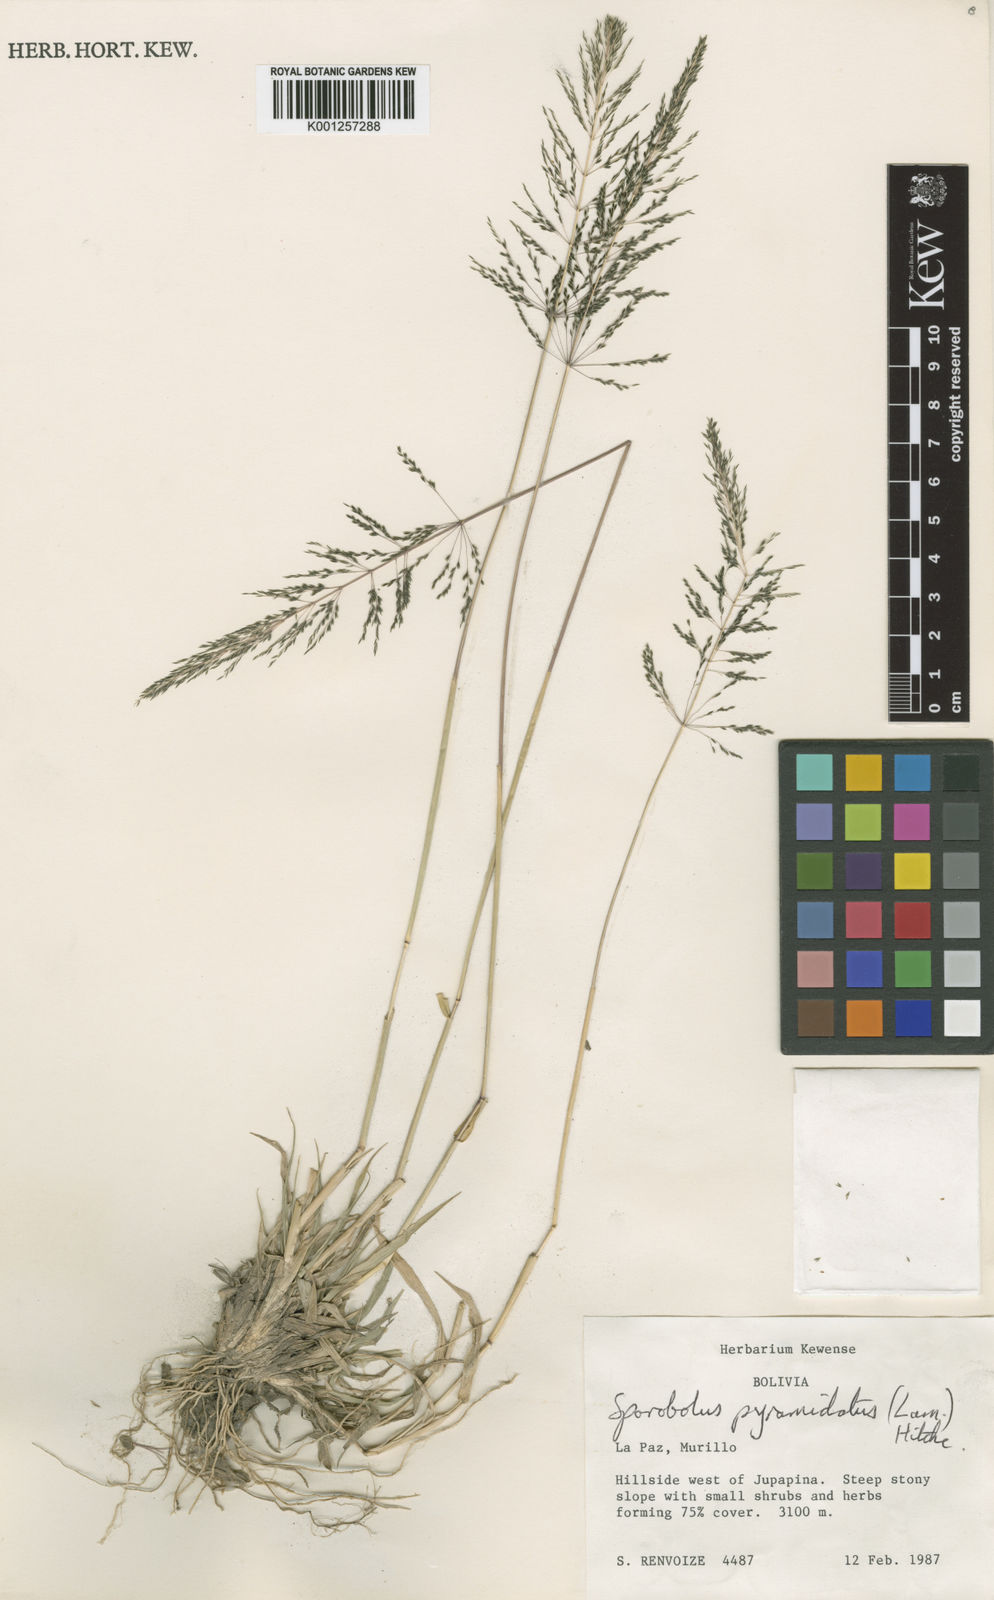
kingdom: Plantae
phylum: Tracheophyta
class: Liliopsida
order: Poales
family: Poaceae
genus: Sporobolus
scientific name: Sporobolus pyramidatus
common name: Whorled dropseed
